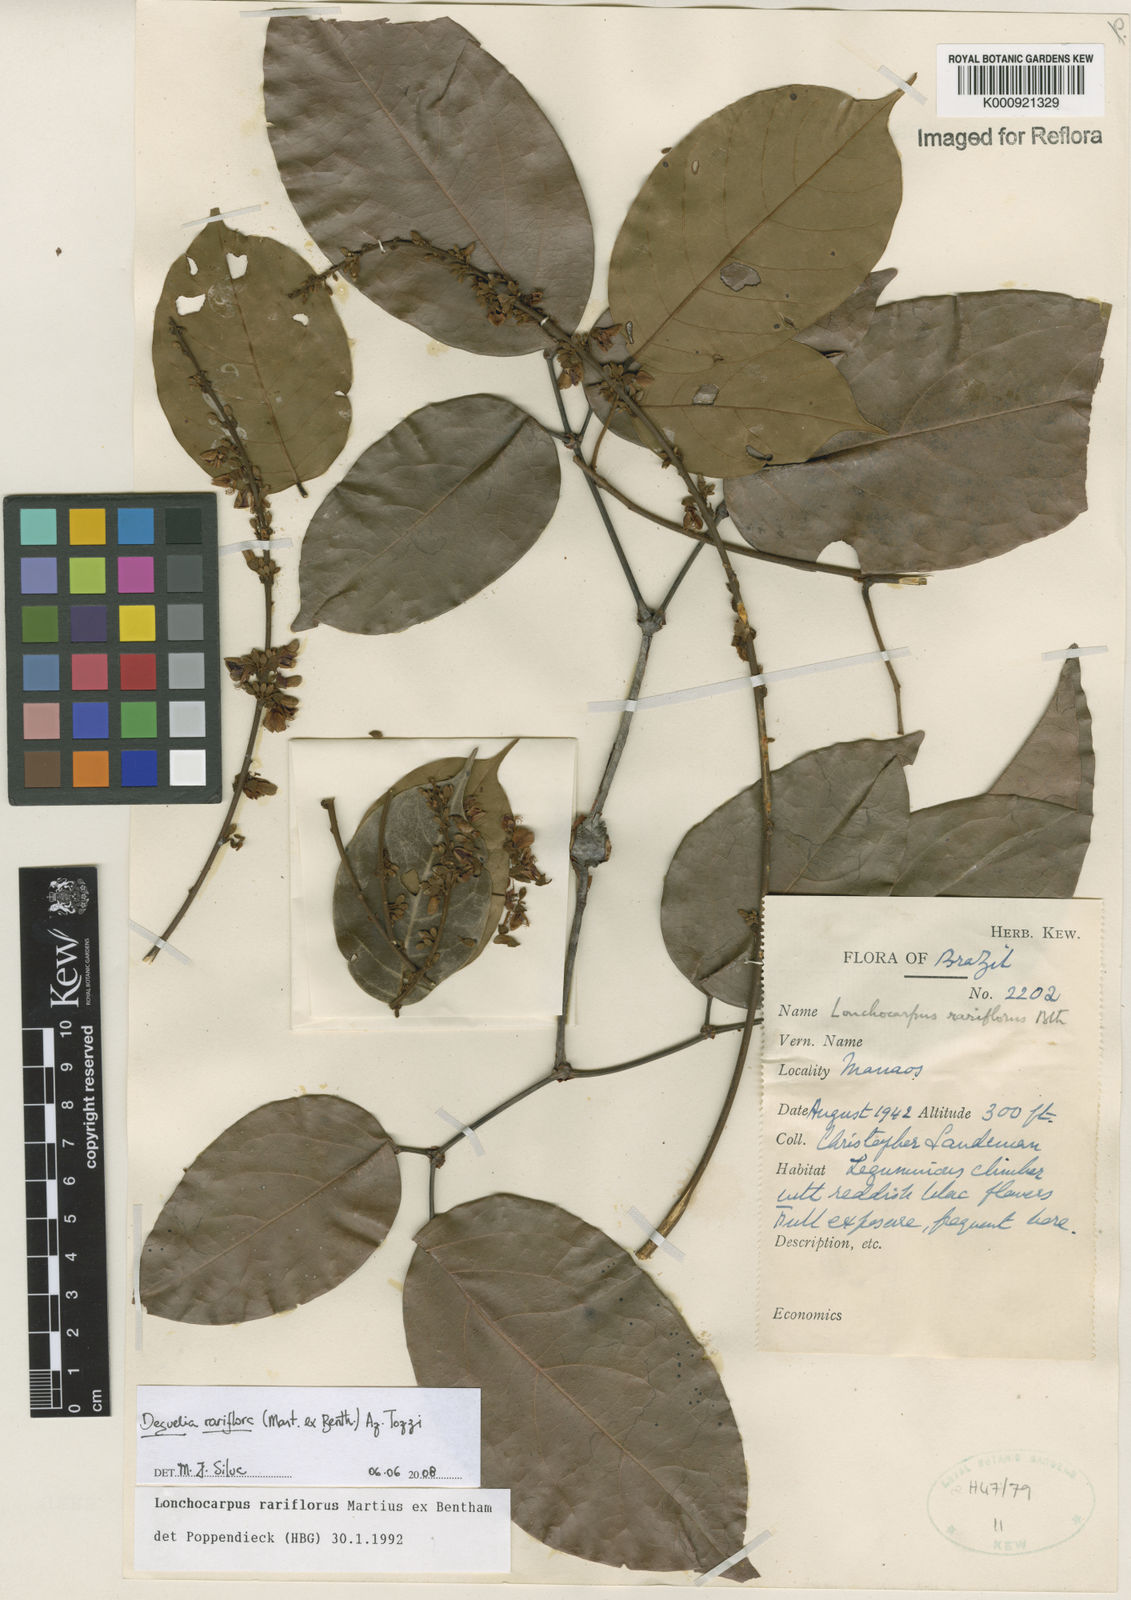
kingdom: Plantae
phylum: Tracheophyta
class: Magnoliopsida
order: Fabales
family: Fabaceae
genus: Deguelia
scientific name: Deguelia
